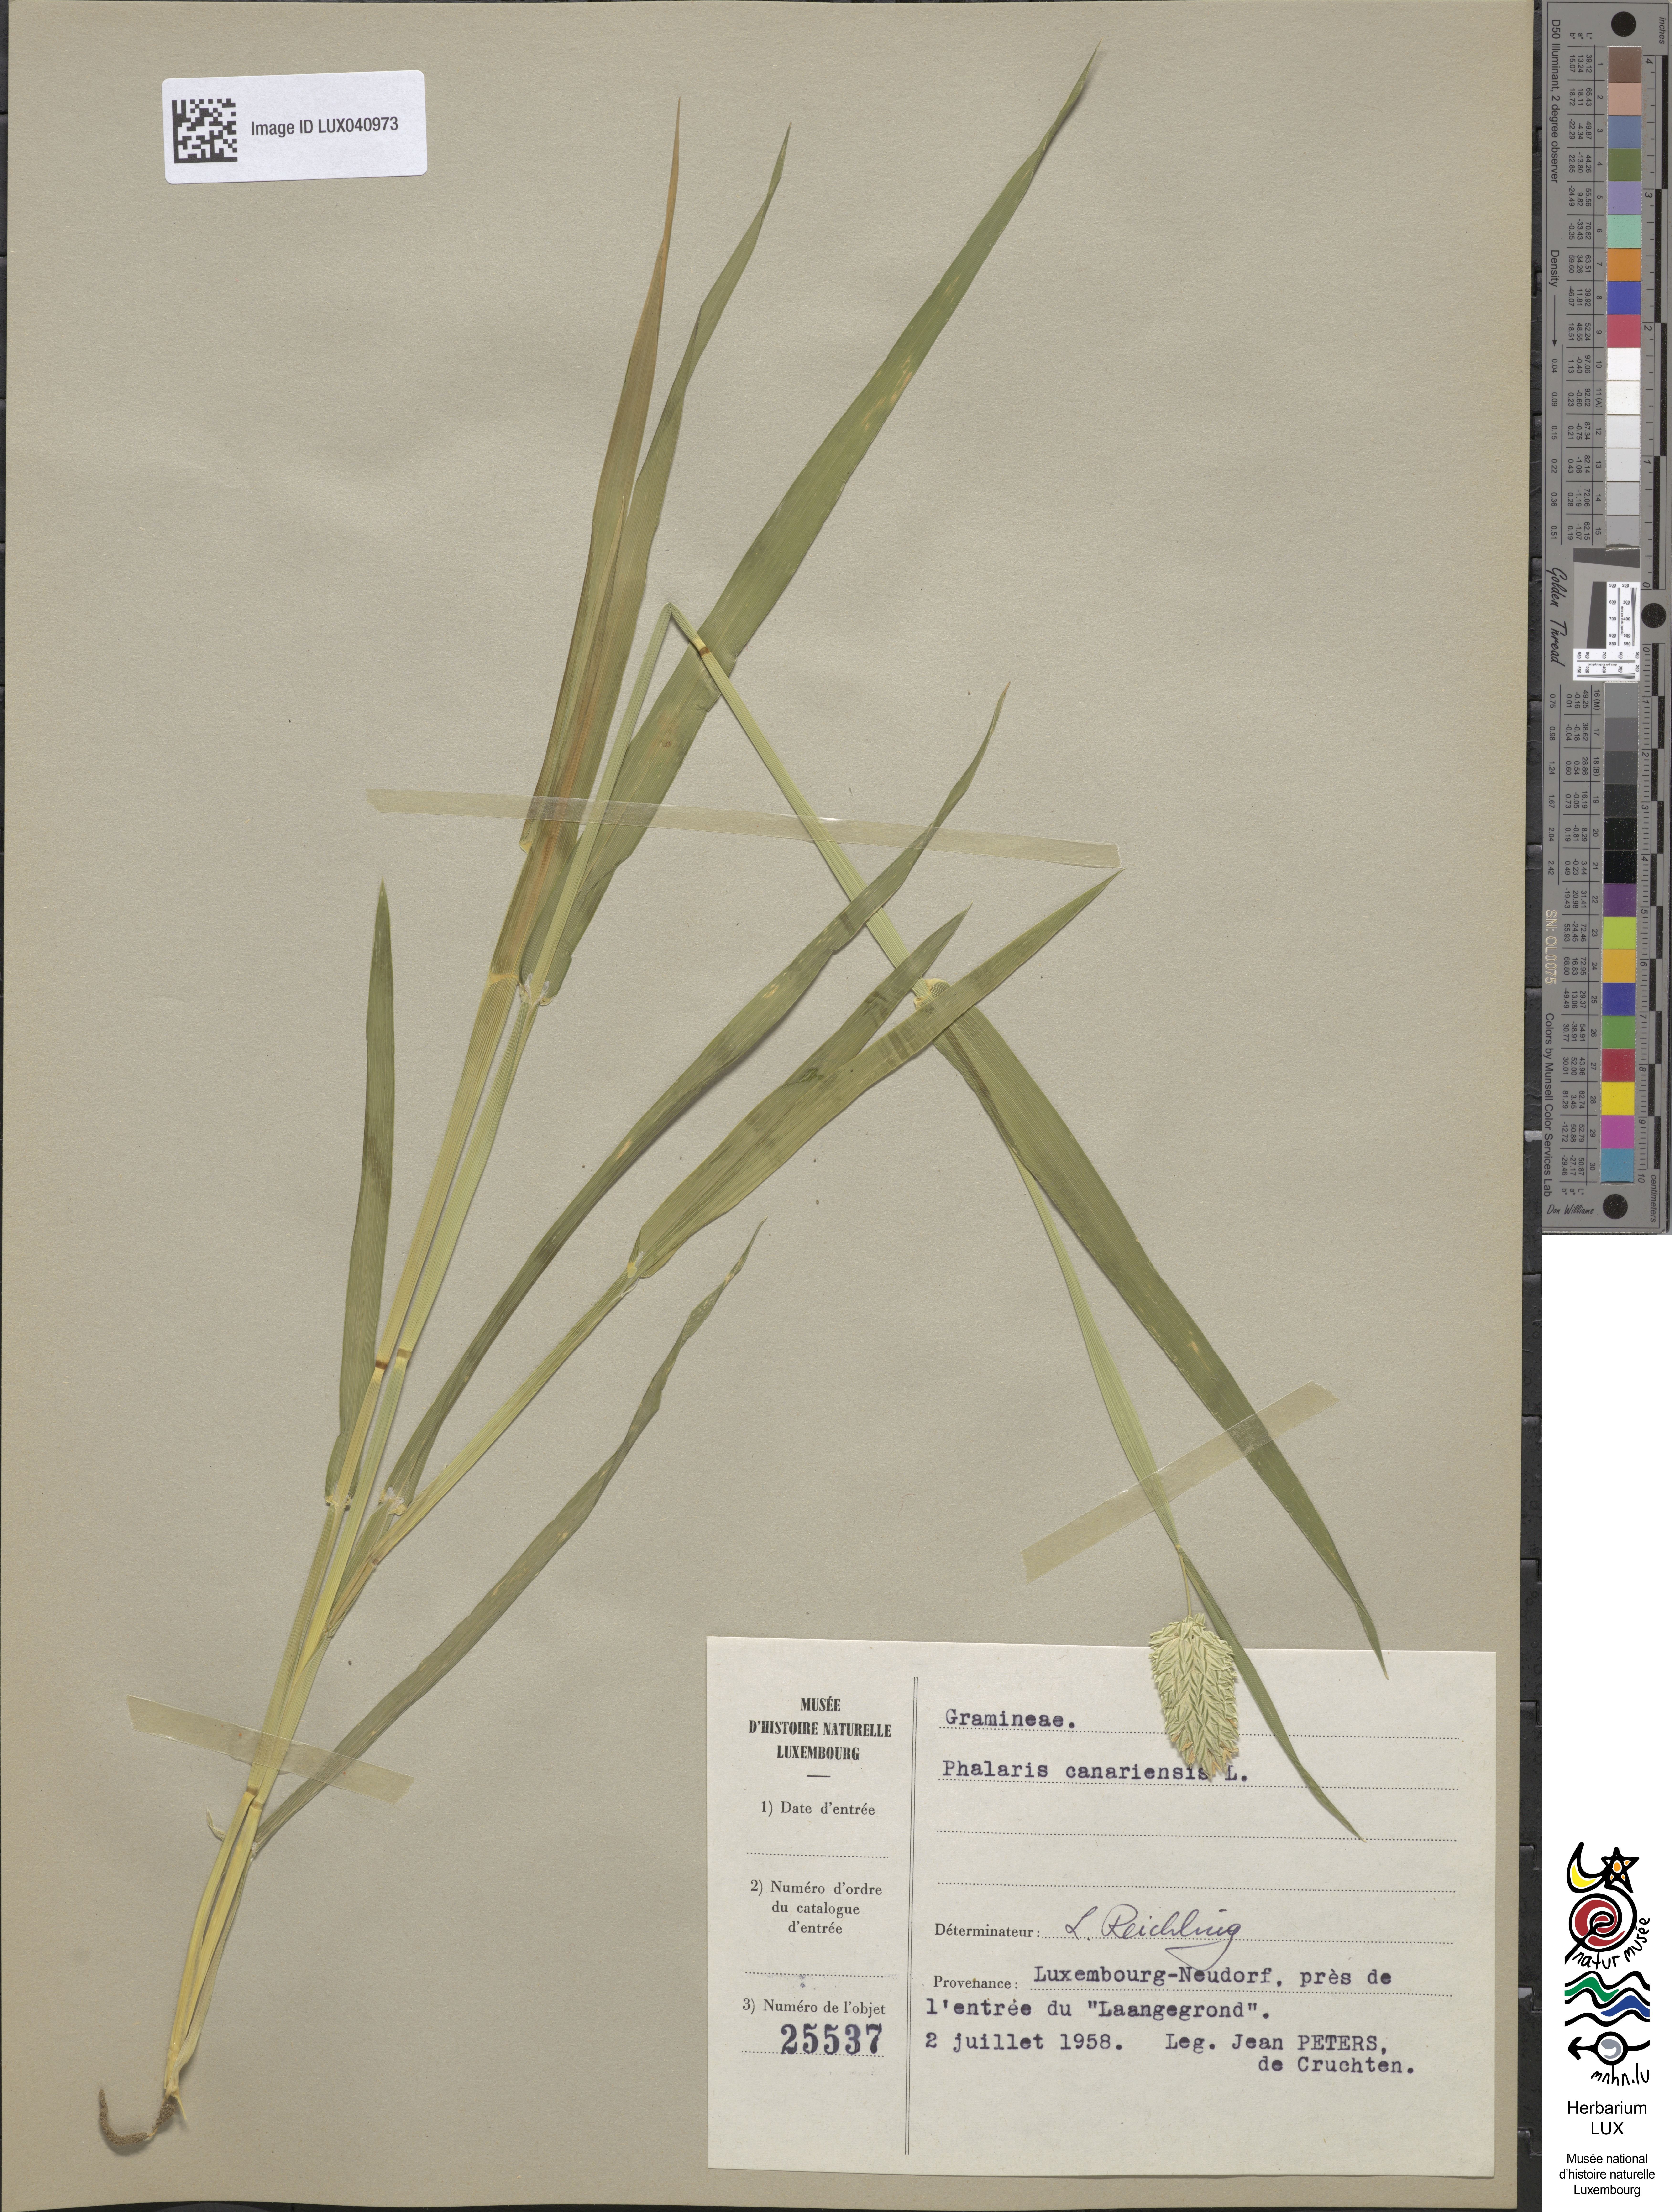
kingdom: Plantae
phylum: Tracheophyta
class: Liliopsida
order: Poales
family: Poaceae
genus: Phalaris
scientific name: Phalaris canariensis
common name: Annual canarygrass
